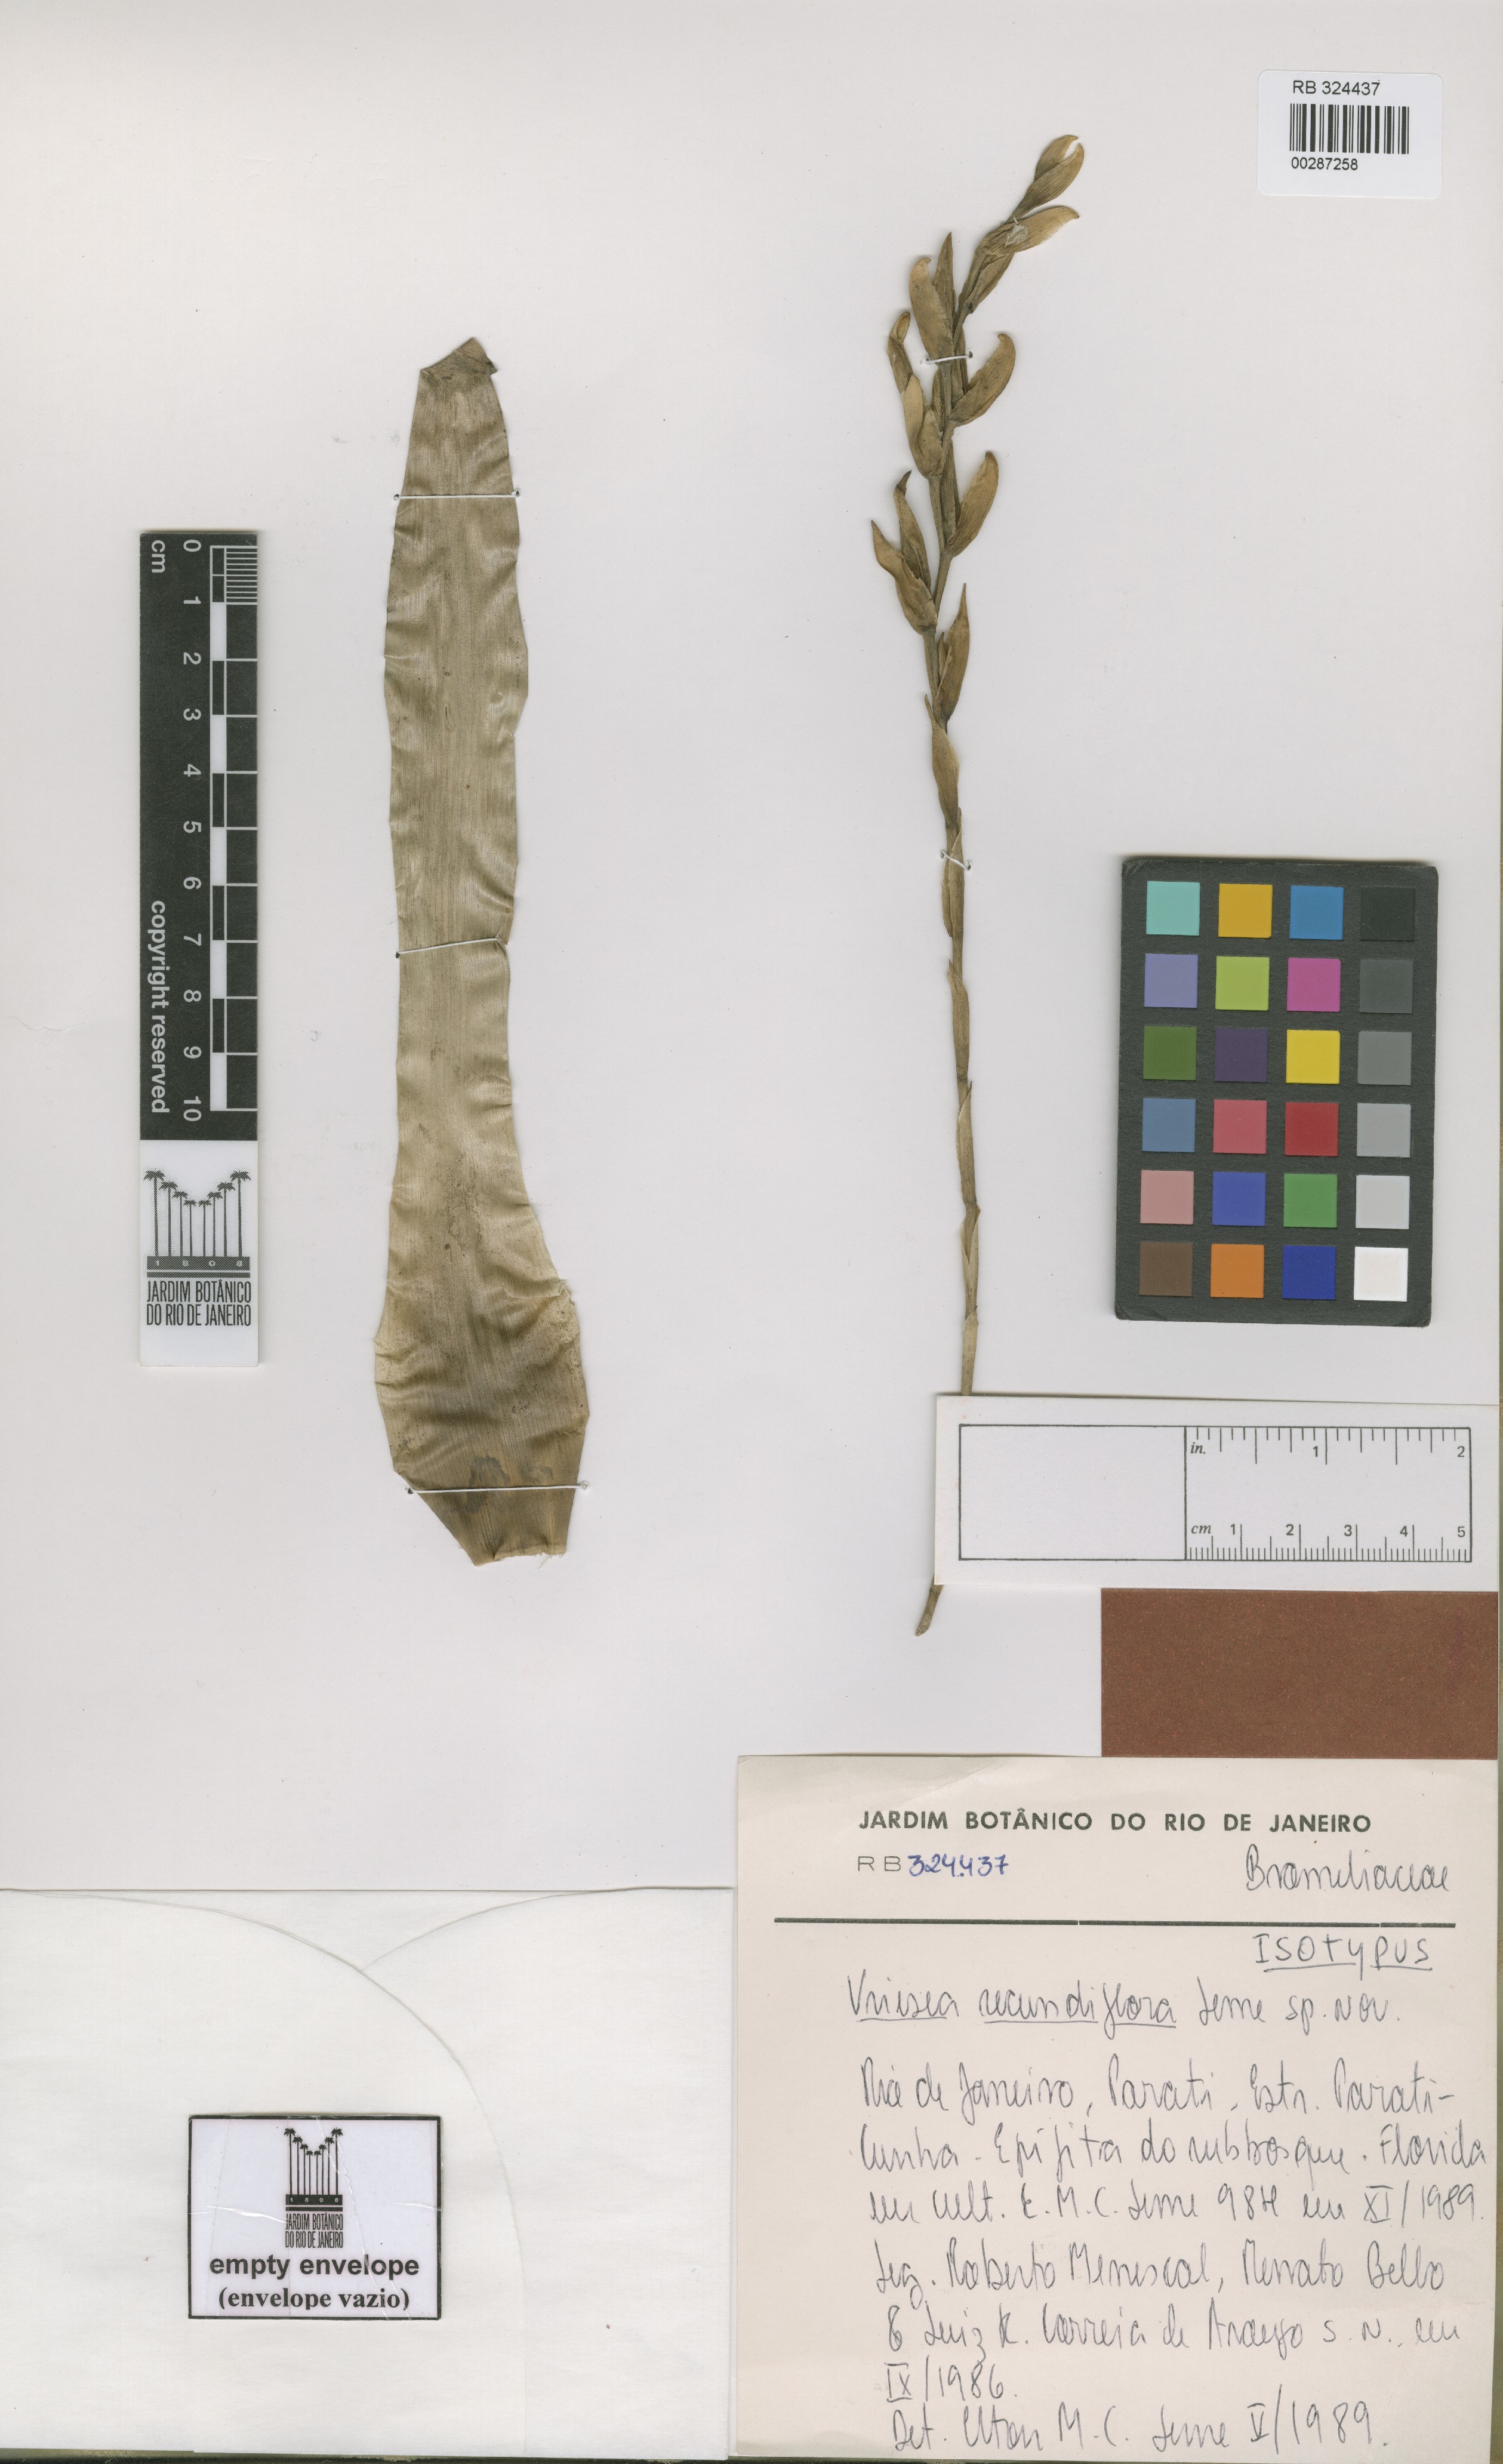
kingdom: Plantae
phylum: Tracheophyta
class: Liliopsida
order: Poales
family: Bromeliaceae
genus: Vriesea
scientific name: Vriesea secundiflora
